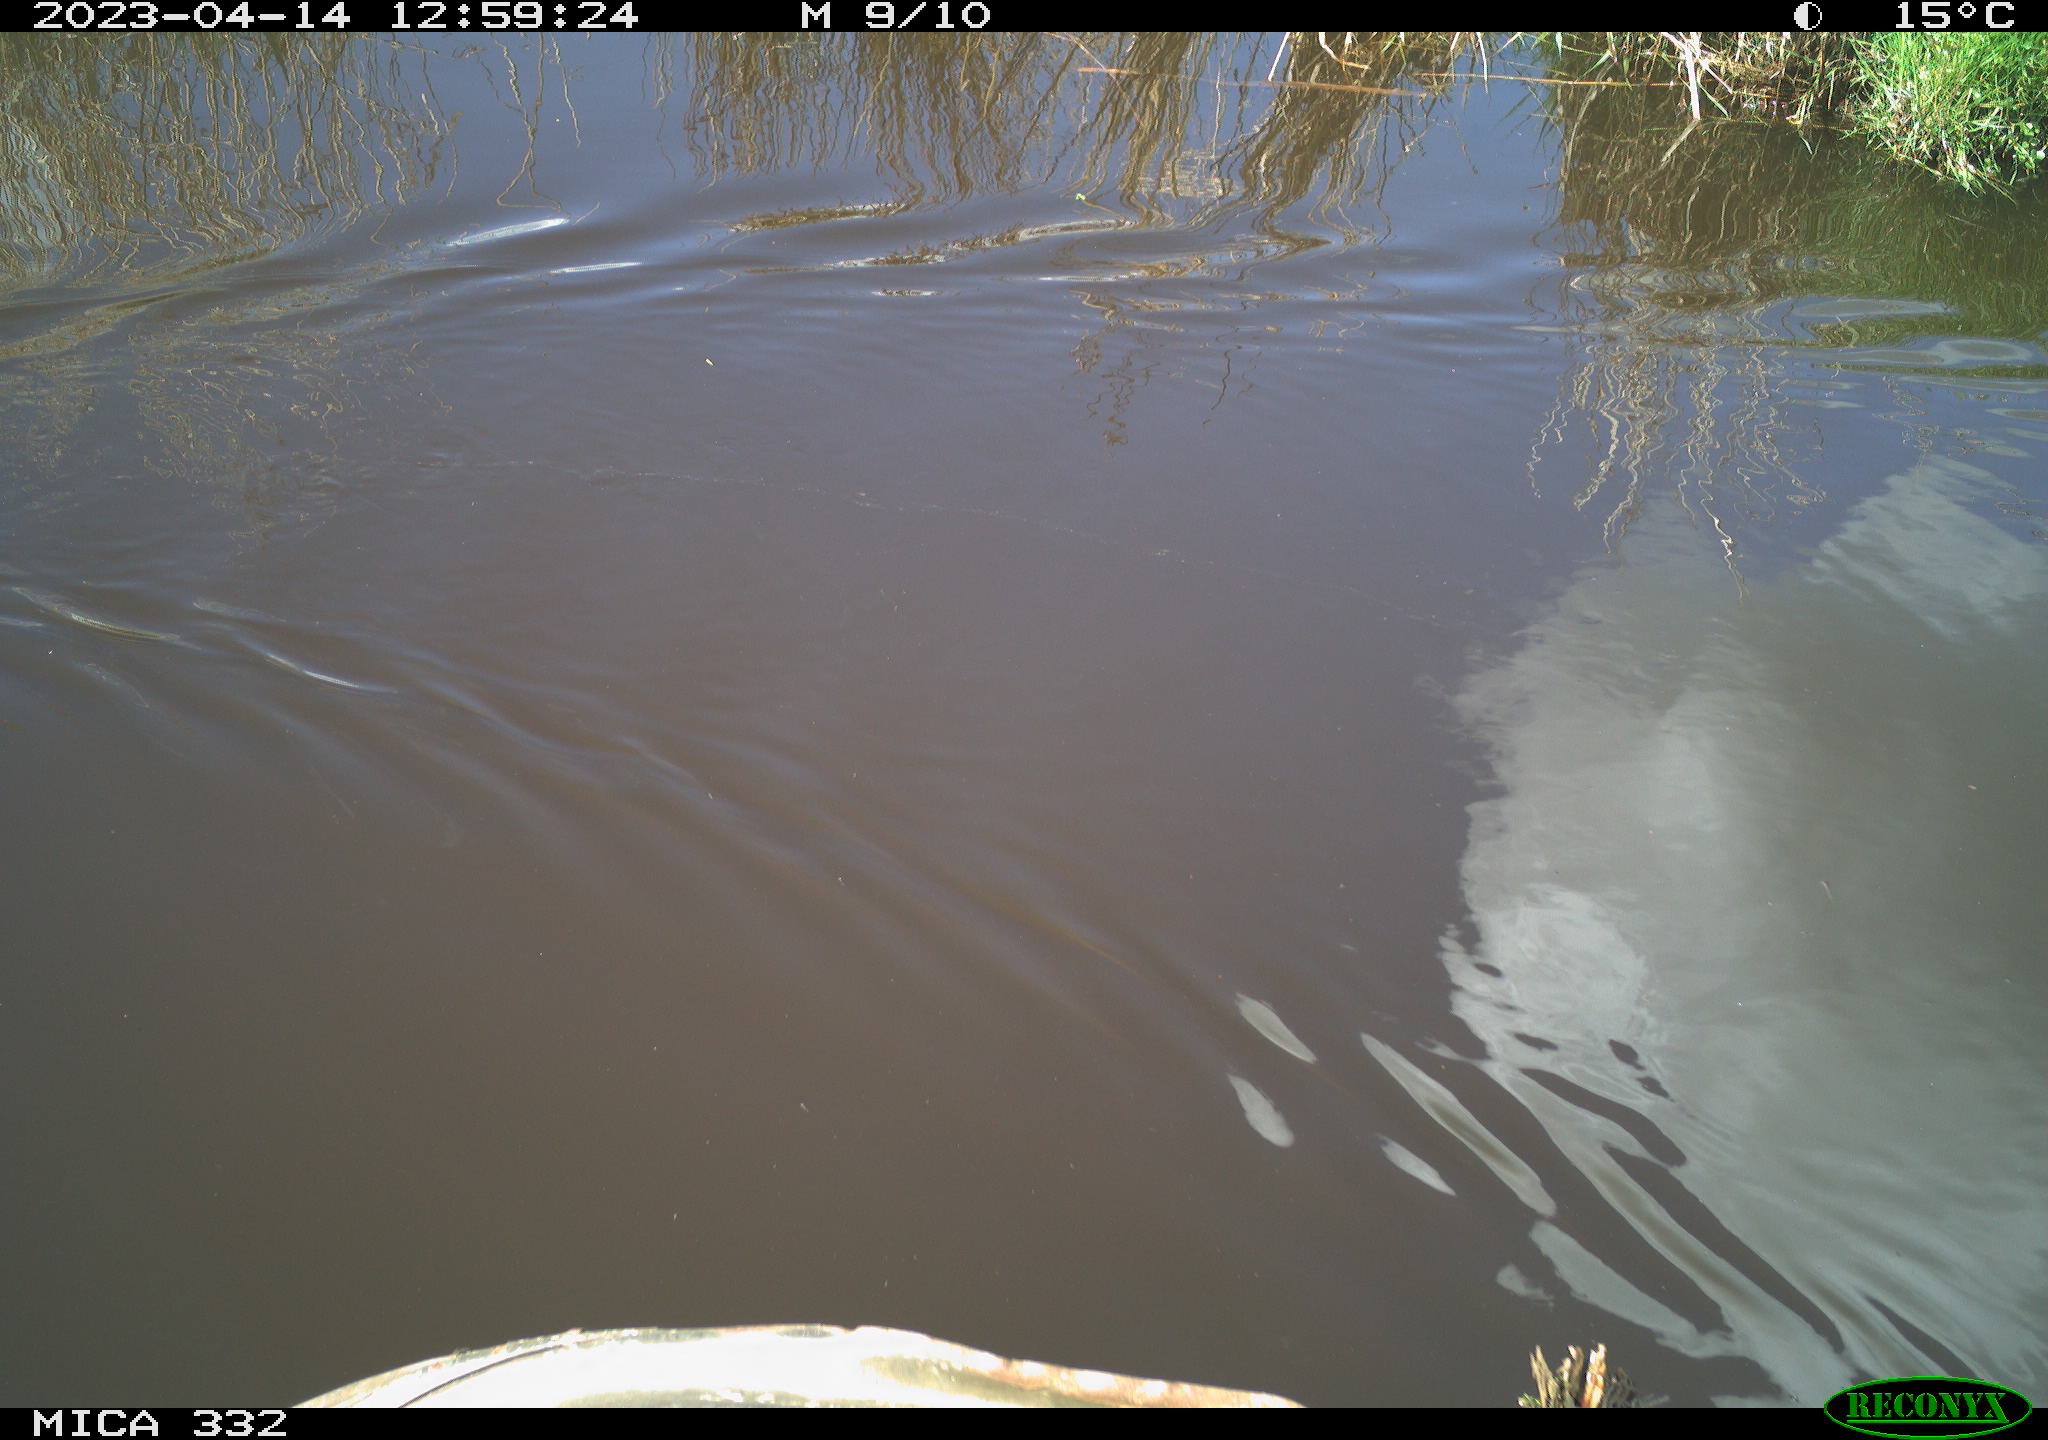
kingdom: Animalia
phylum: Chordata
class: Aves
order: Anseriformes
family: Anatidae
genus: Anas
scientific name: Anas platyrhynchos
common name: Mallard
